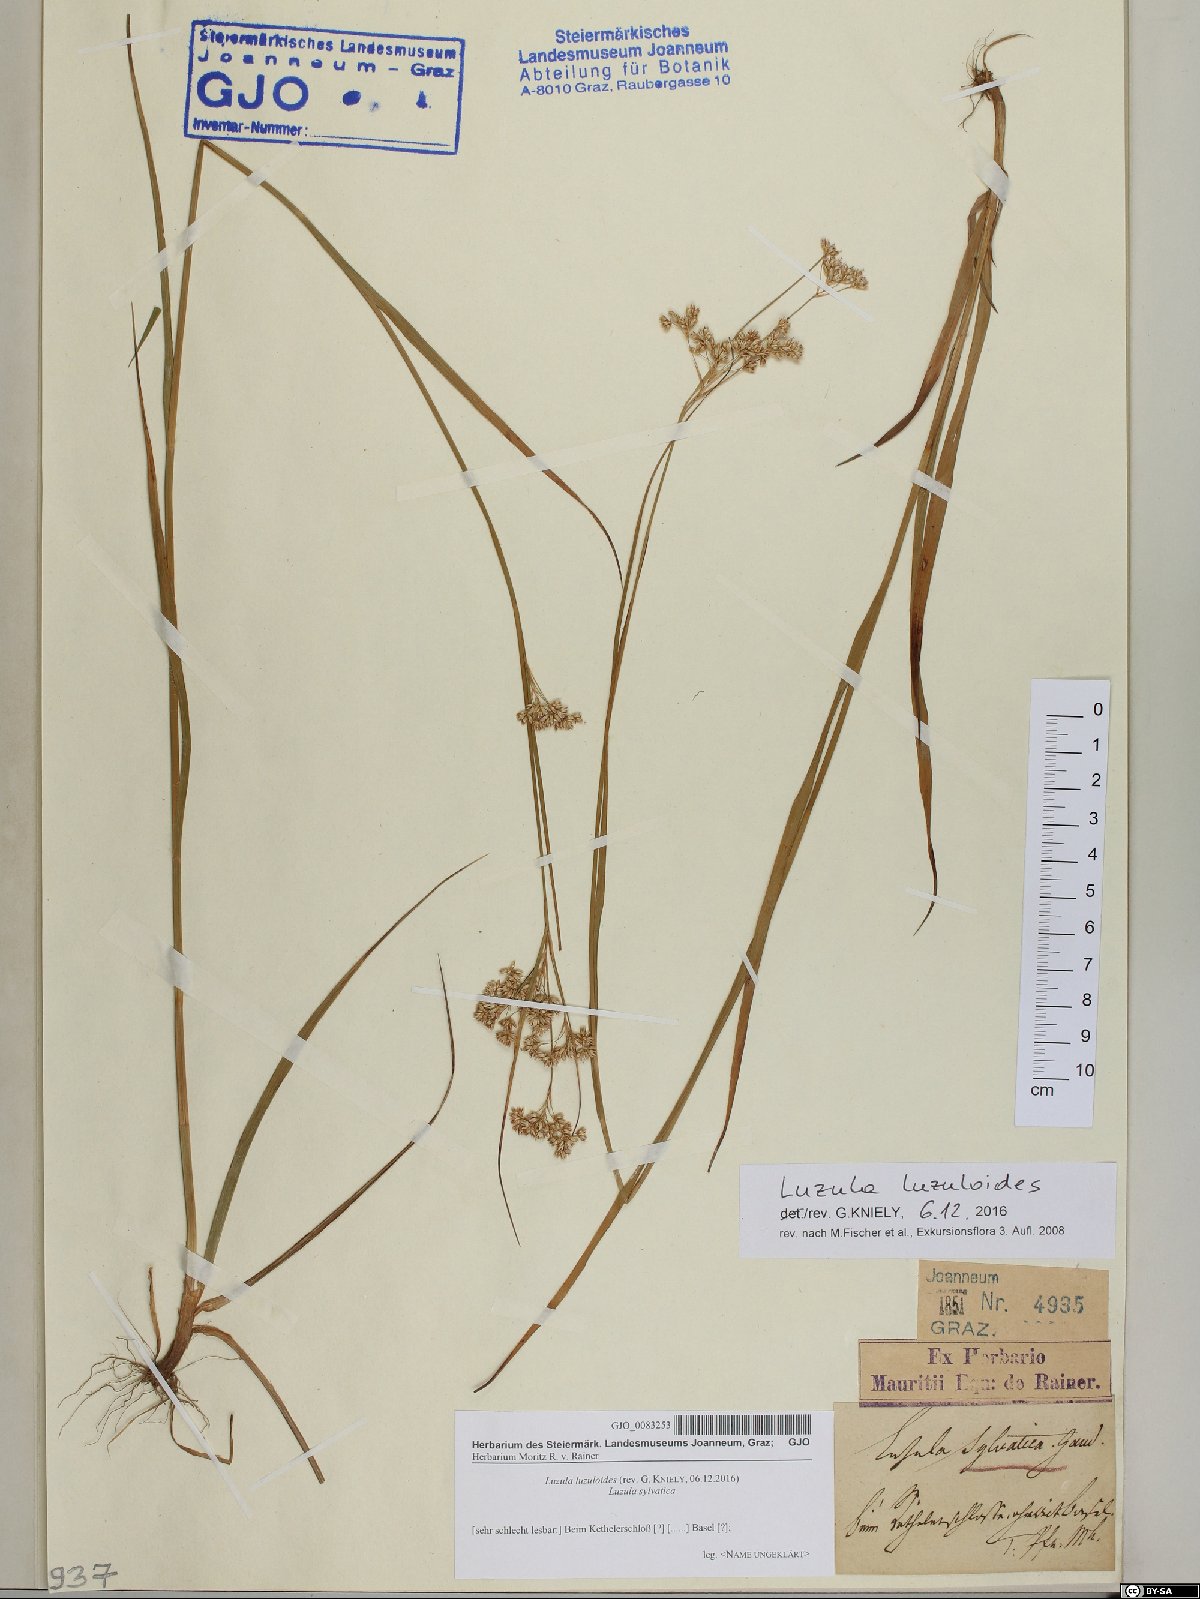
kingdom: Plantae
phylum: Tracheophyta
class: Liliopsida
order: Poales
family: Juncaceae
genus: Luzula
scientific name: Luzula luzuloides
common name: White wood-rush
